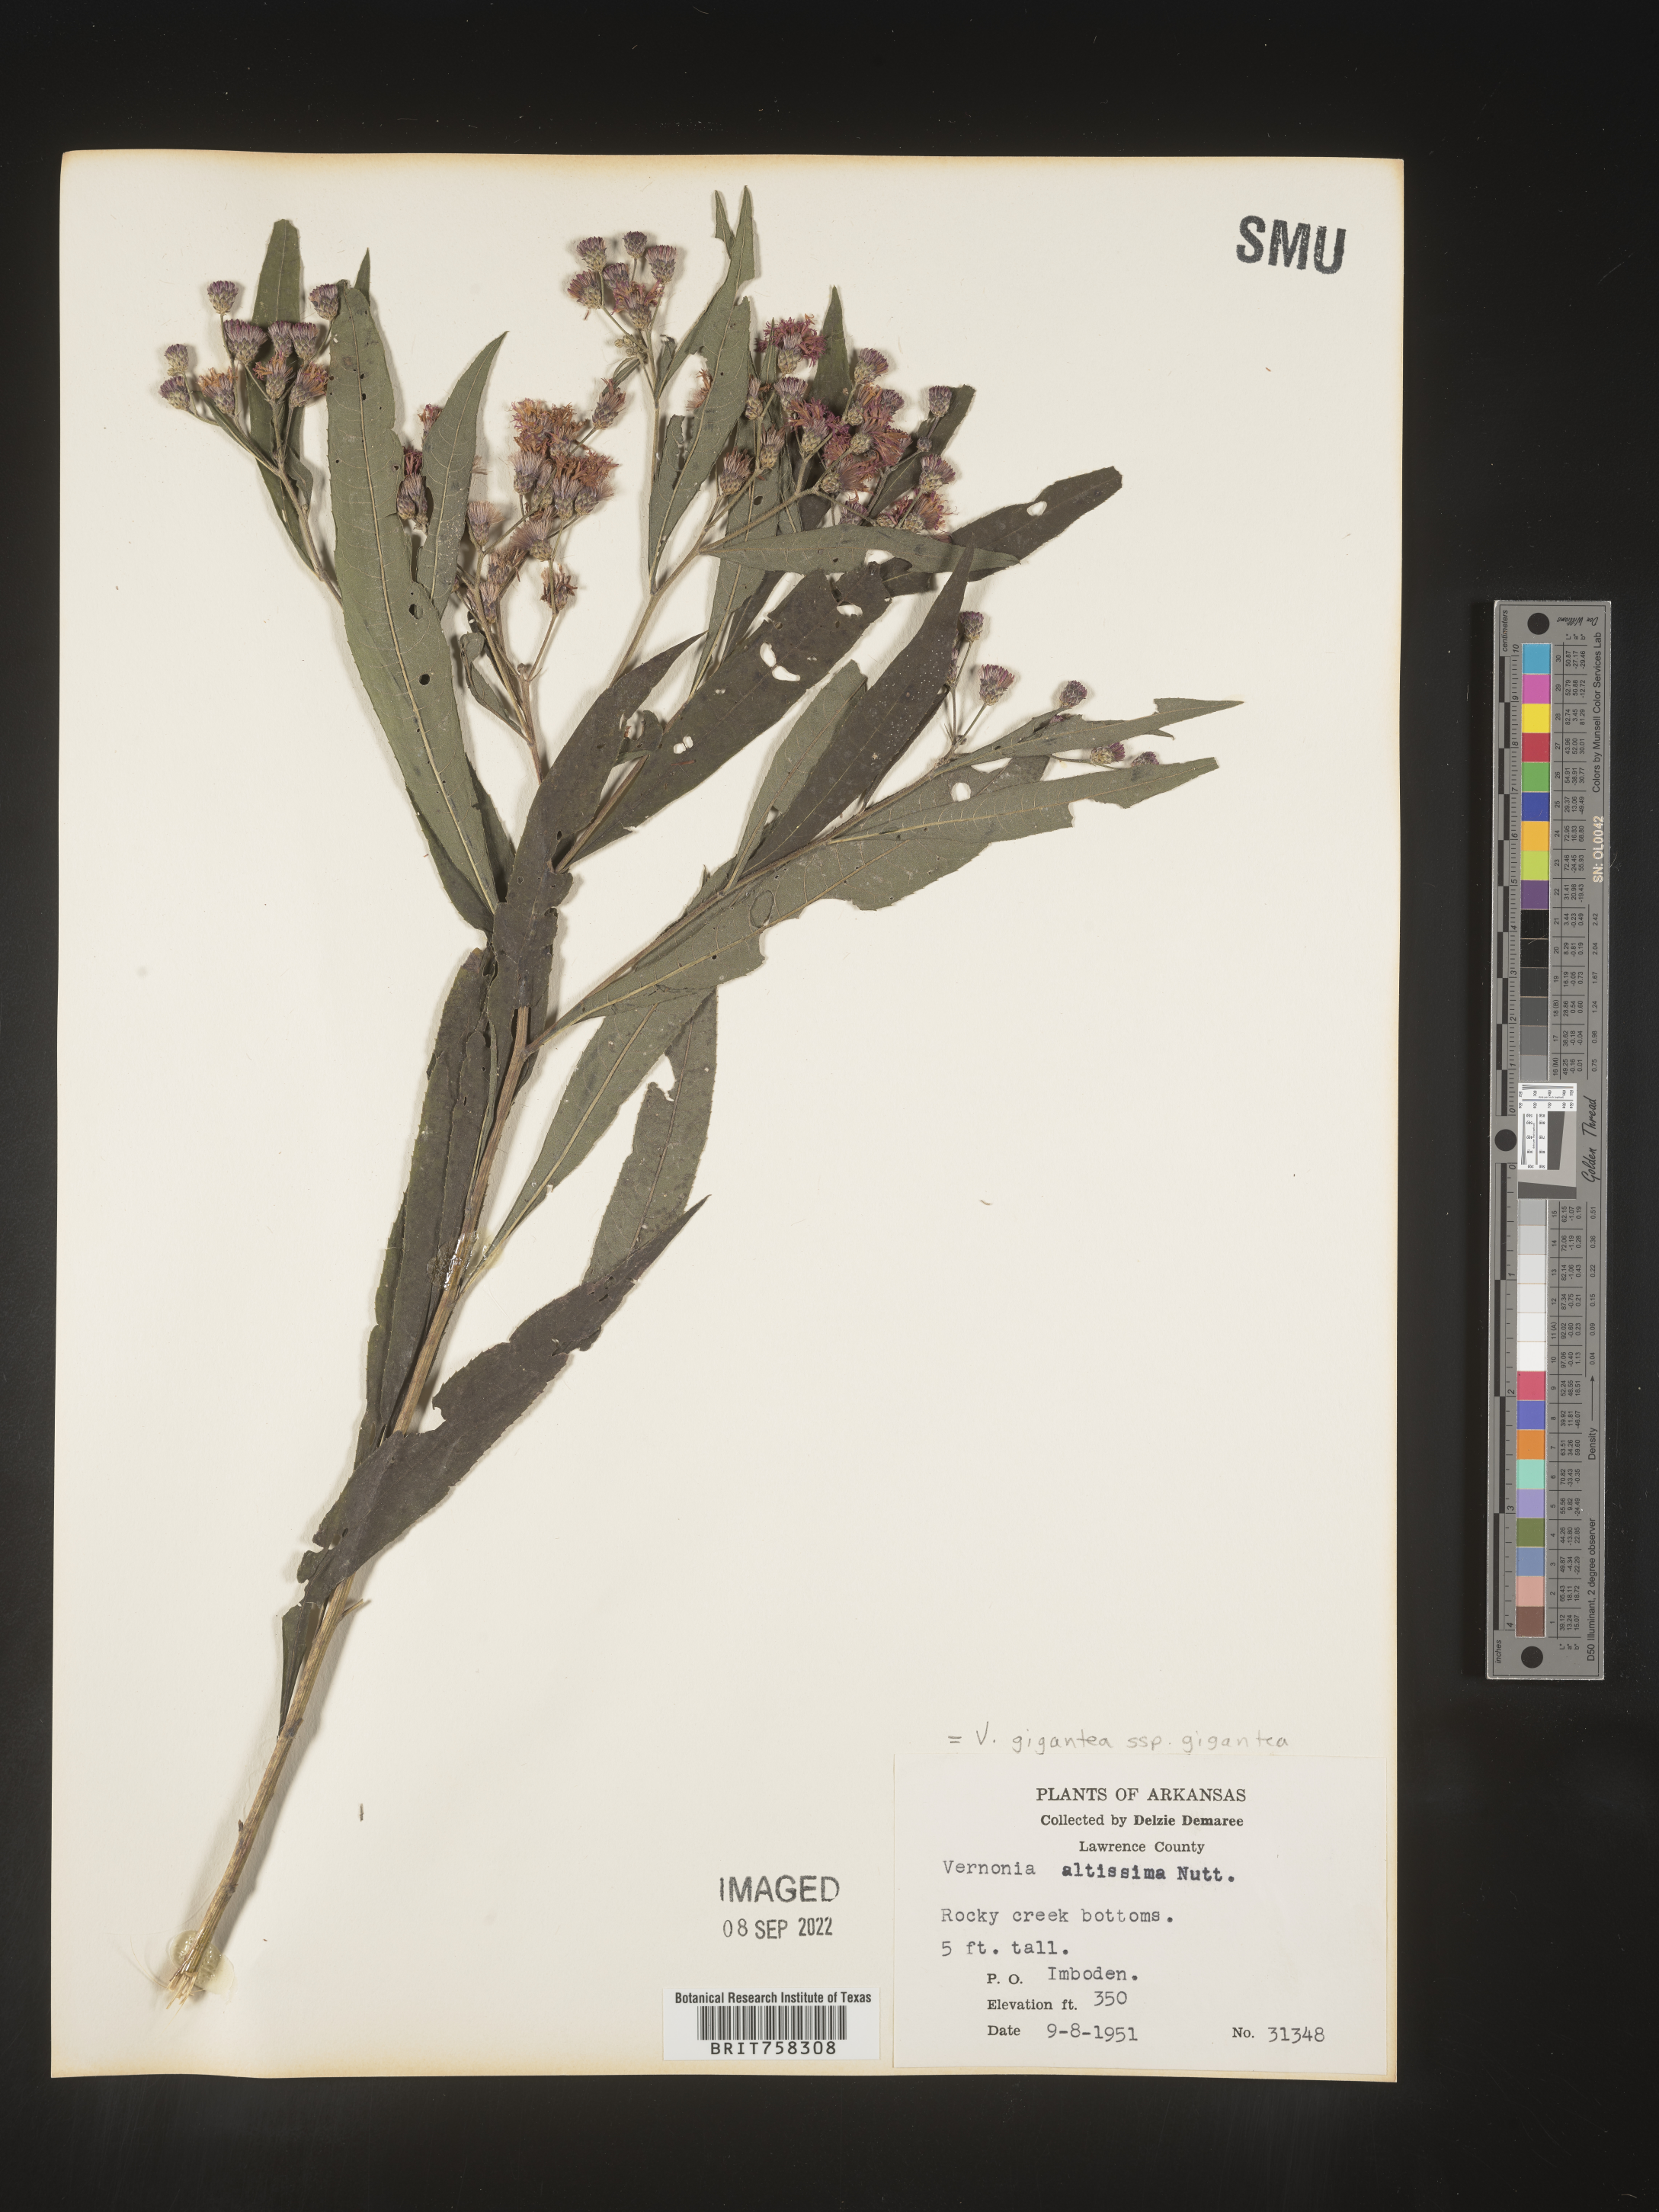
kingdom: Plantae
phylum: Tracheophyta
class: Magnoliopsida
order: Asterales
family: Asteraceae
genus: Vernonia
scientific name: Vernonia gigantea
